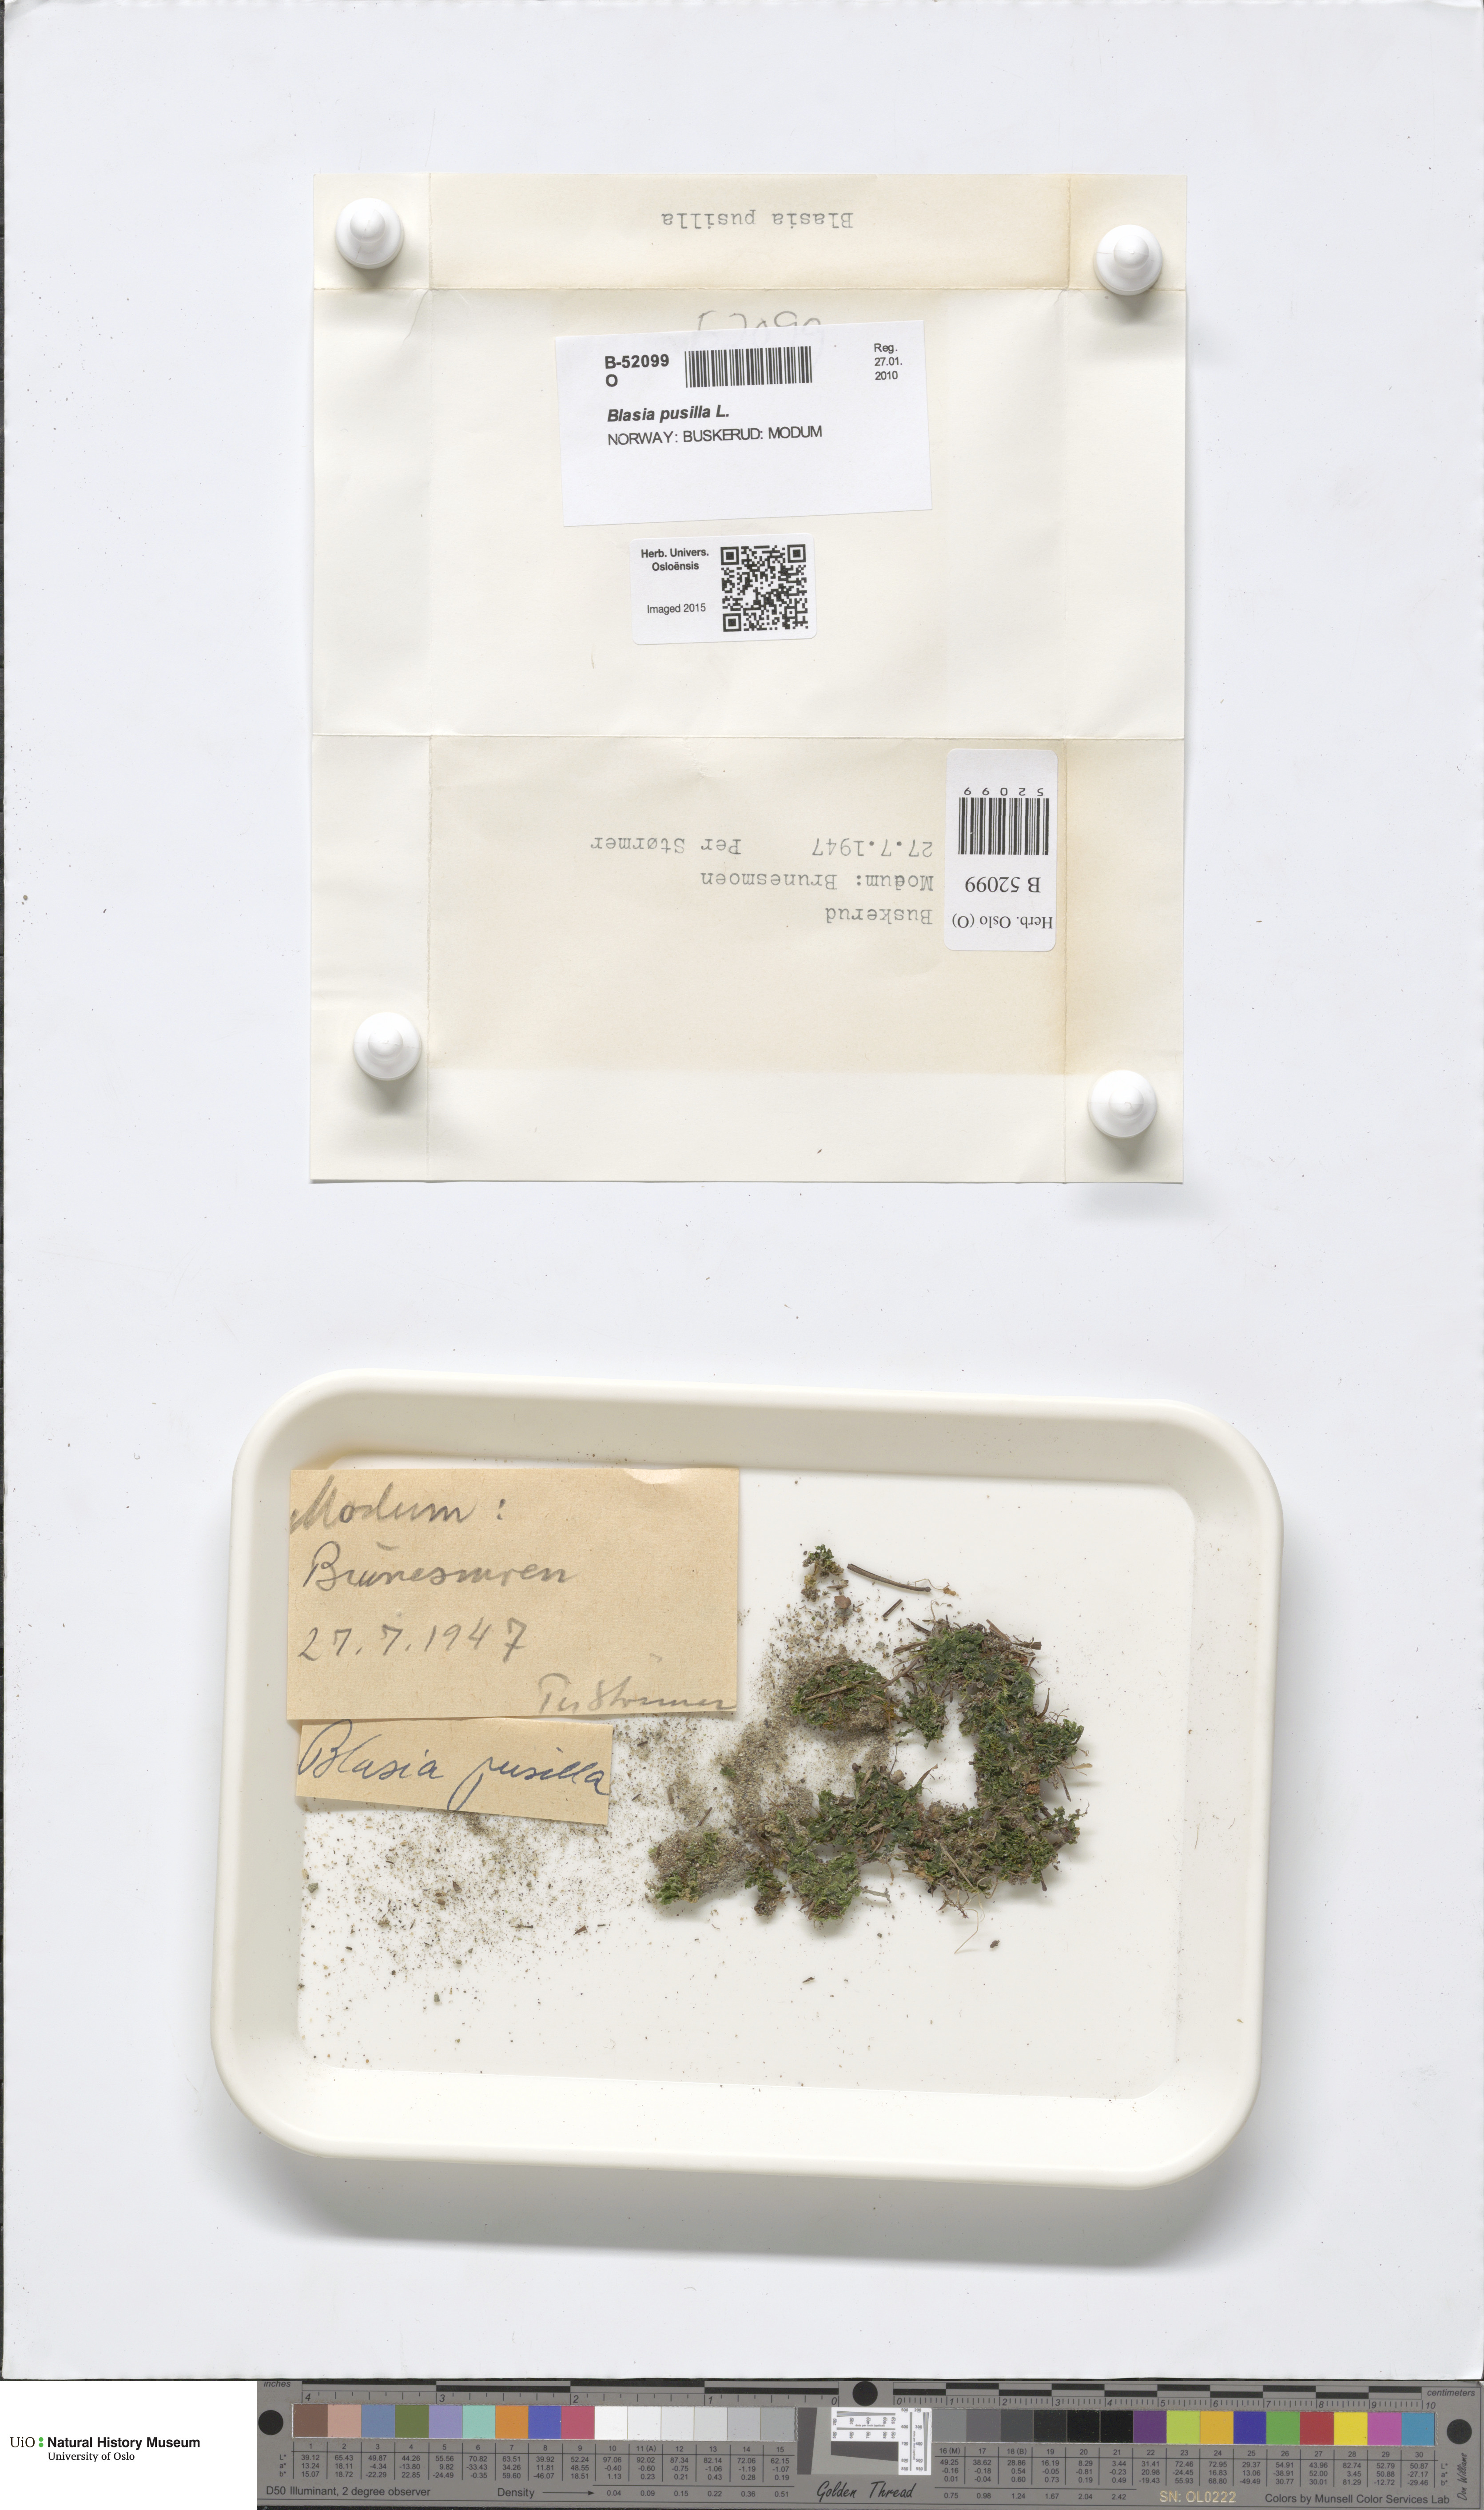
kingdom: Plantae
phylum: Marchantiophyta
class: Marchantiopsida
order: Blasiales
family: Blasiaceae
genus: Blasia
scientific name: Blasia pusilla
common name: Common kettlewort
